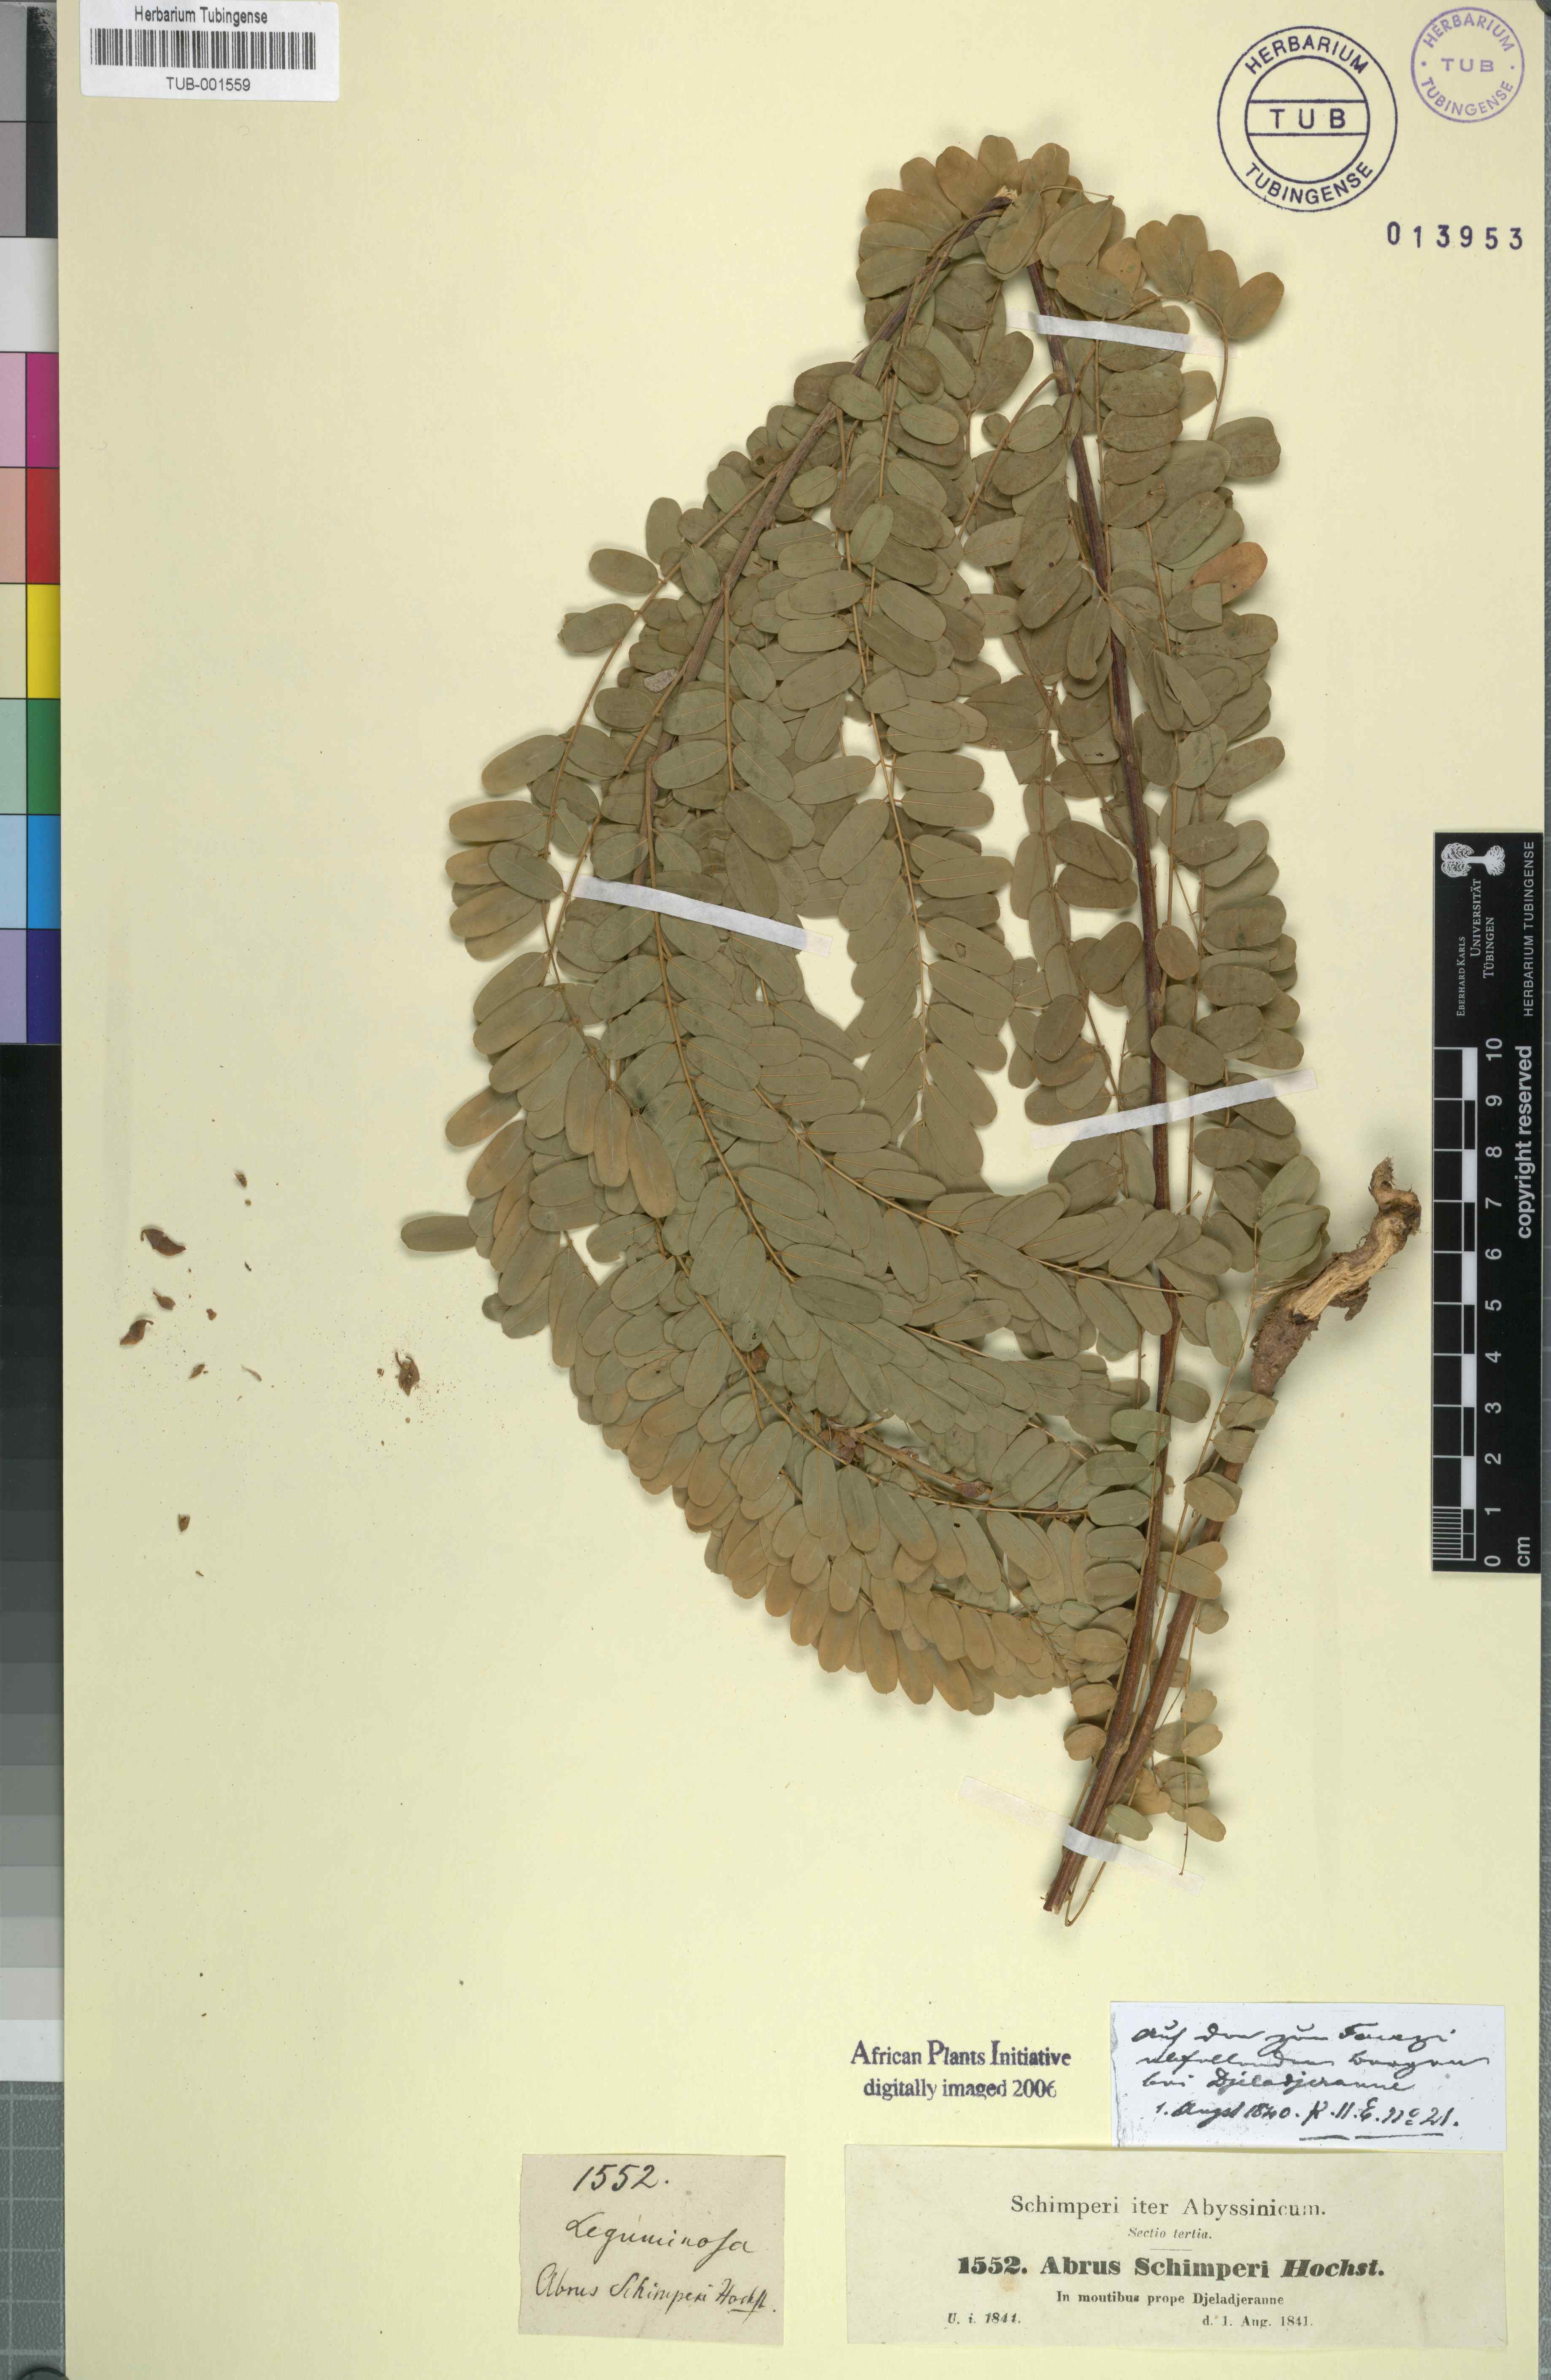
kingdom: Plantae
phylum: Tracheophyta
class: Magnoliopsida
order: Fabales
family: Fabaceae
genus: Abrus
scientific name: Abrus schimperi
